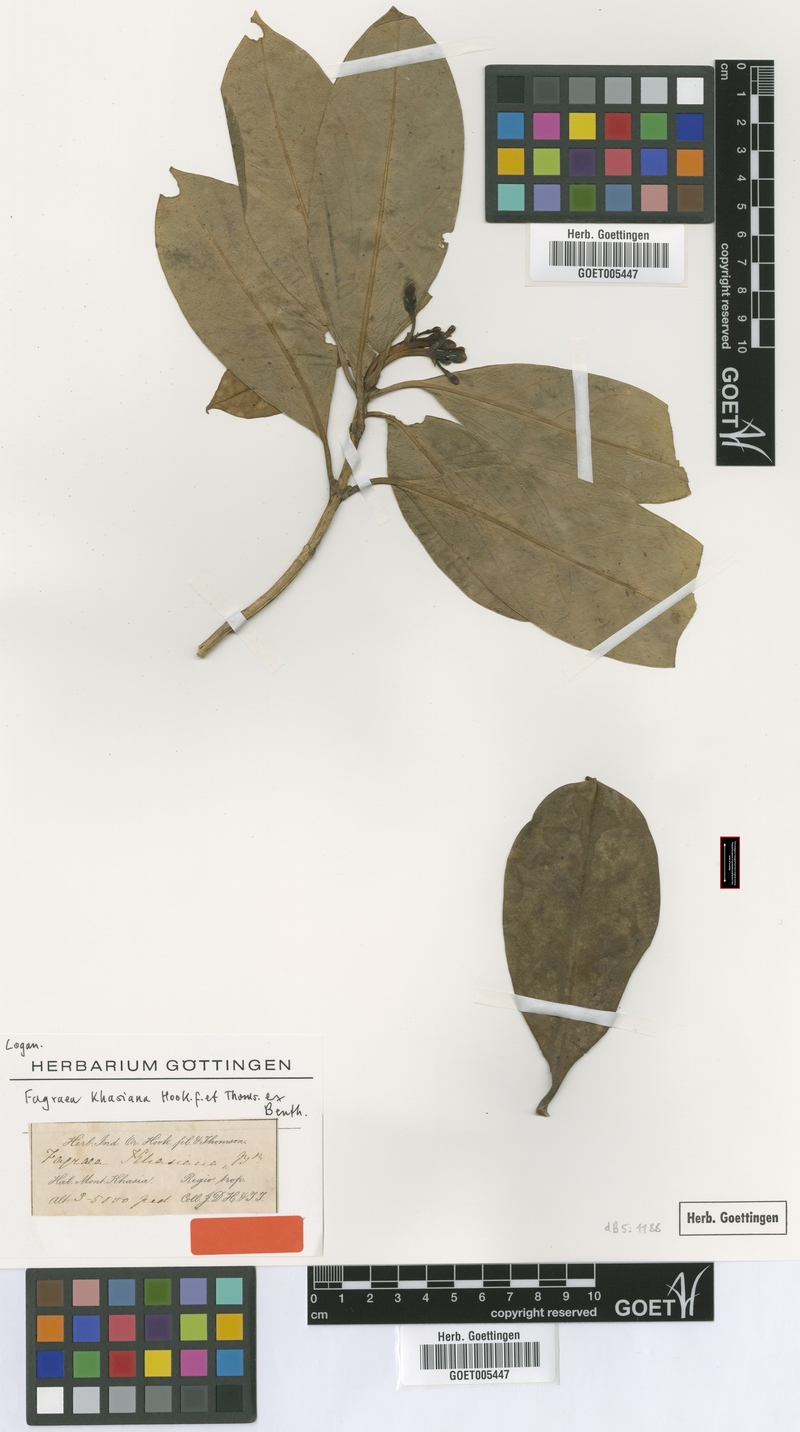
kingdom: Plantae
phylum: Tracheophyta
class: Magnoliopsida
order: Gentianales
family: Gentianaceae
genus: Fagraea
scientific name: Fagraea ceilanica
